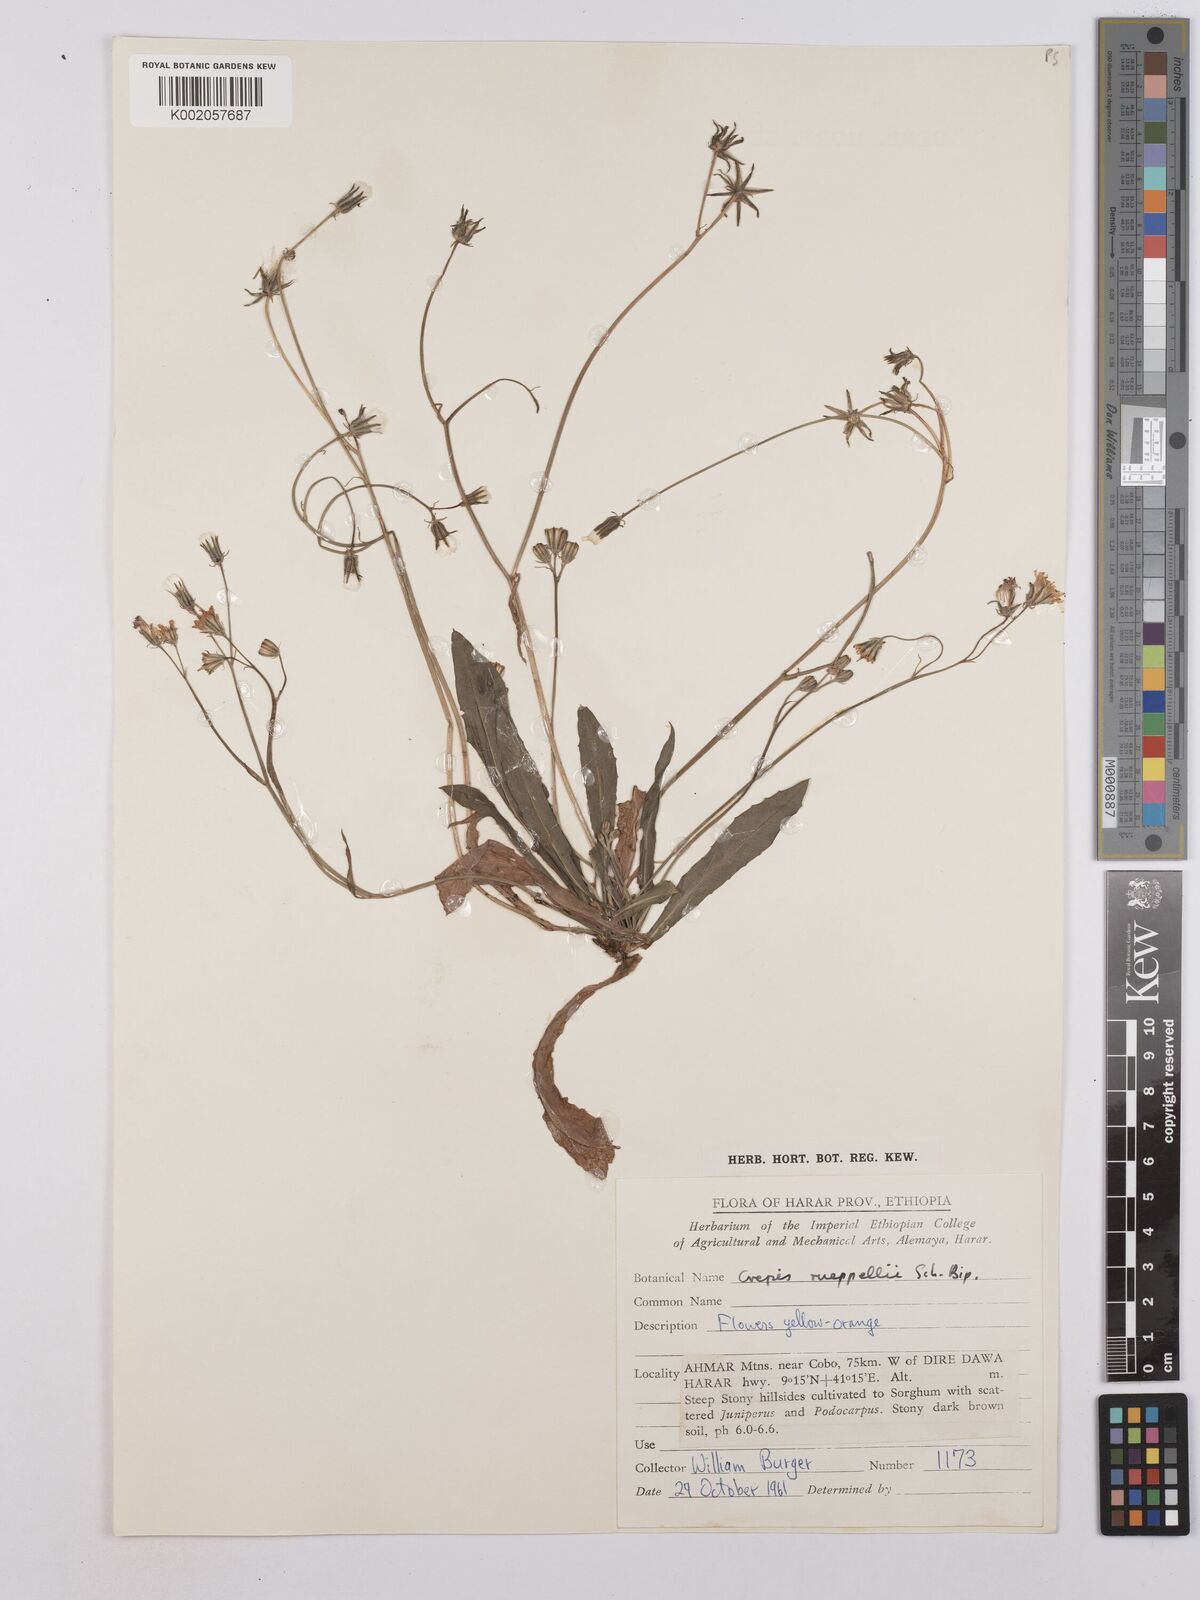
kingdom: Plantae
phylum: Tracheophyta
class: Magnoliopsida
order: Asterales
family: Asteraceae
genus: Crepis
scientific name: Crepis rueppellii
